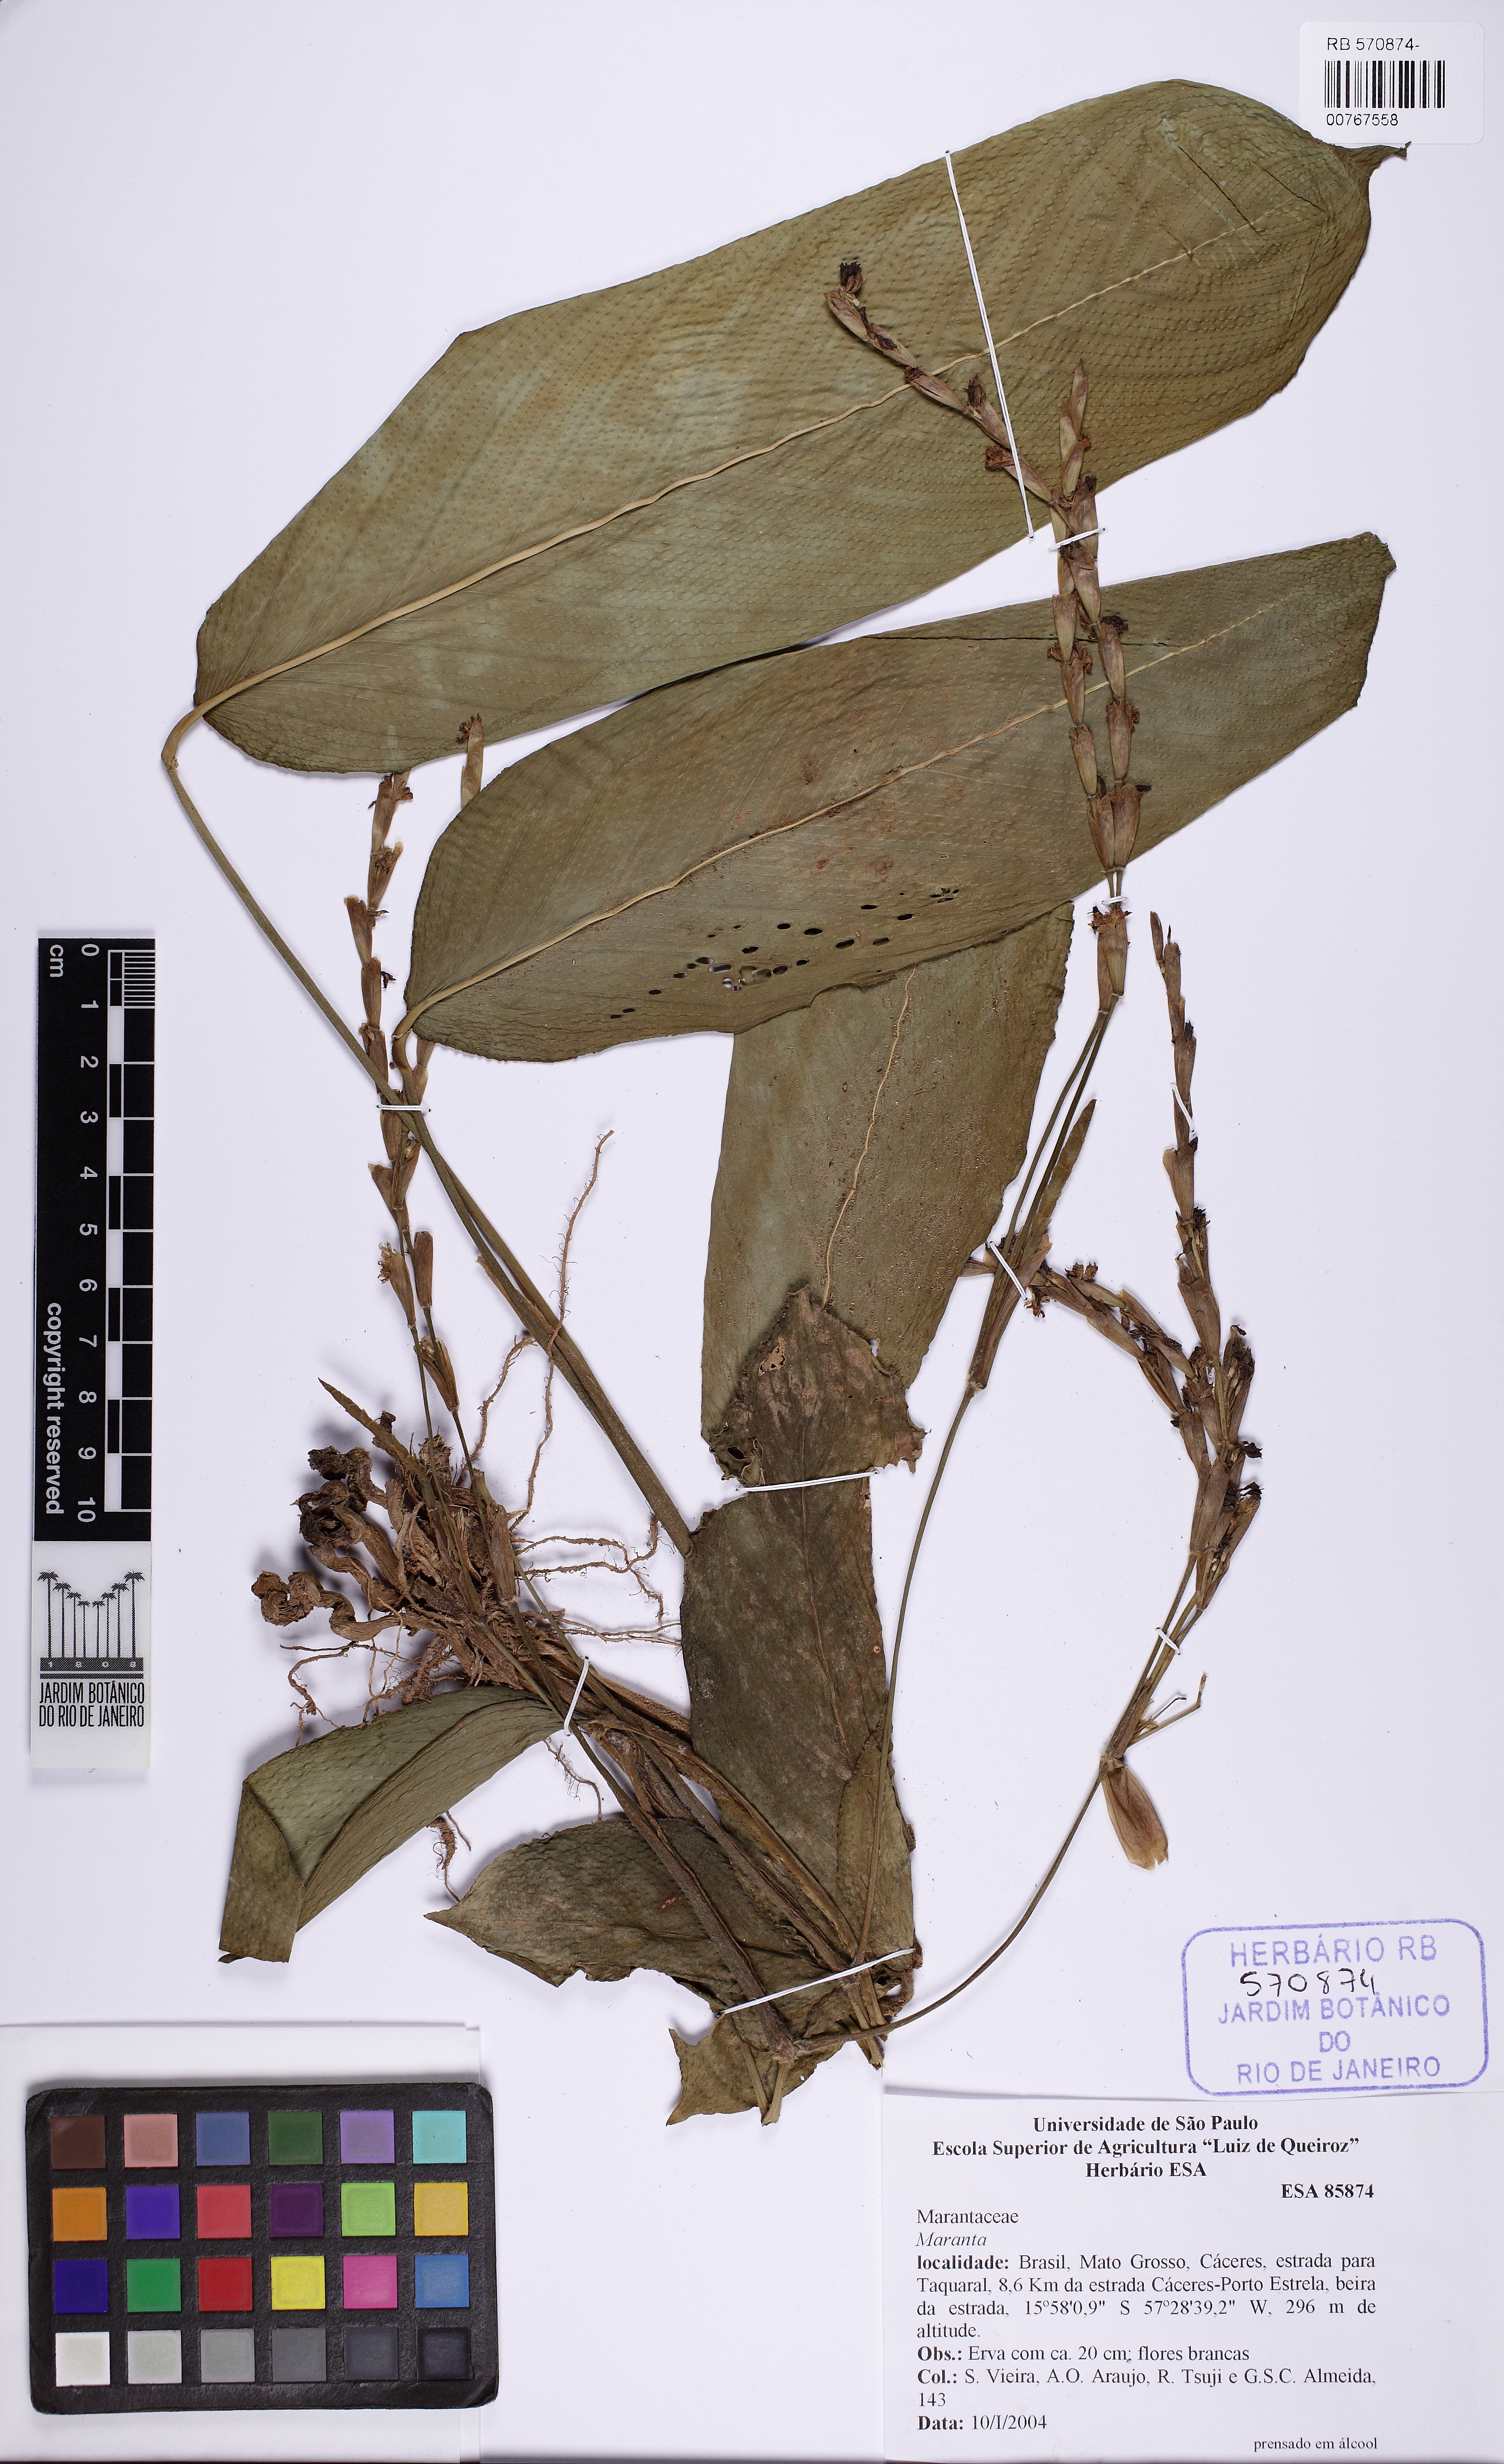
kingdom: Plantae
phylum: Tracheophyta
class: Liliopsida
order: Zingiberales
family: Marantaceae
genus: Maranta
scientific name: Maranta pluriflora
